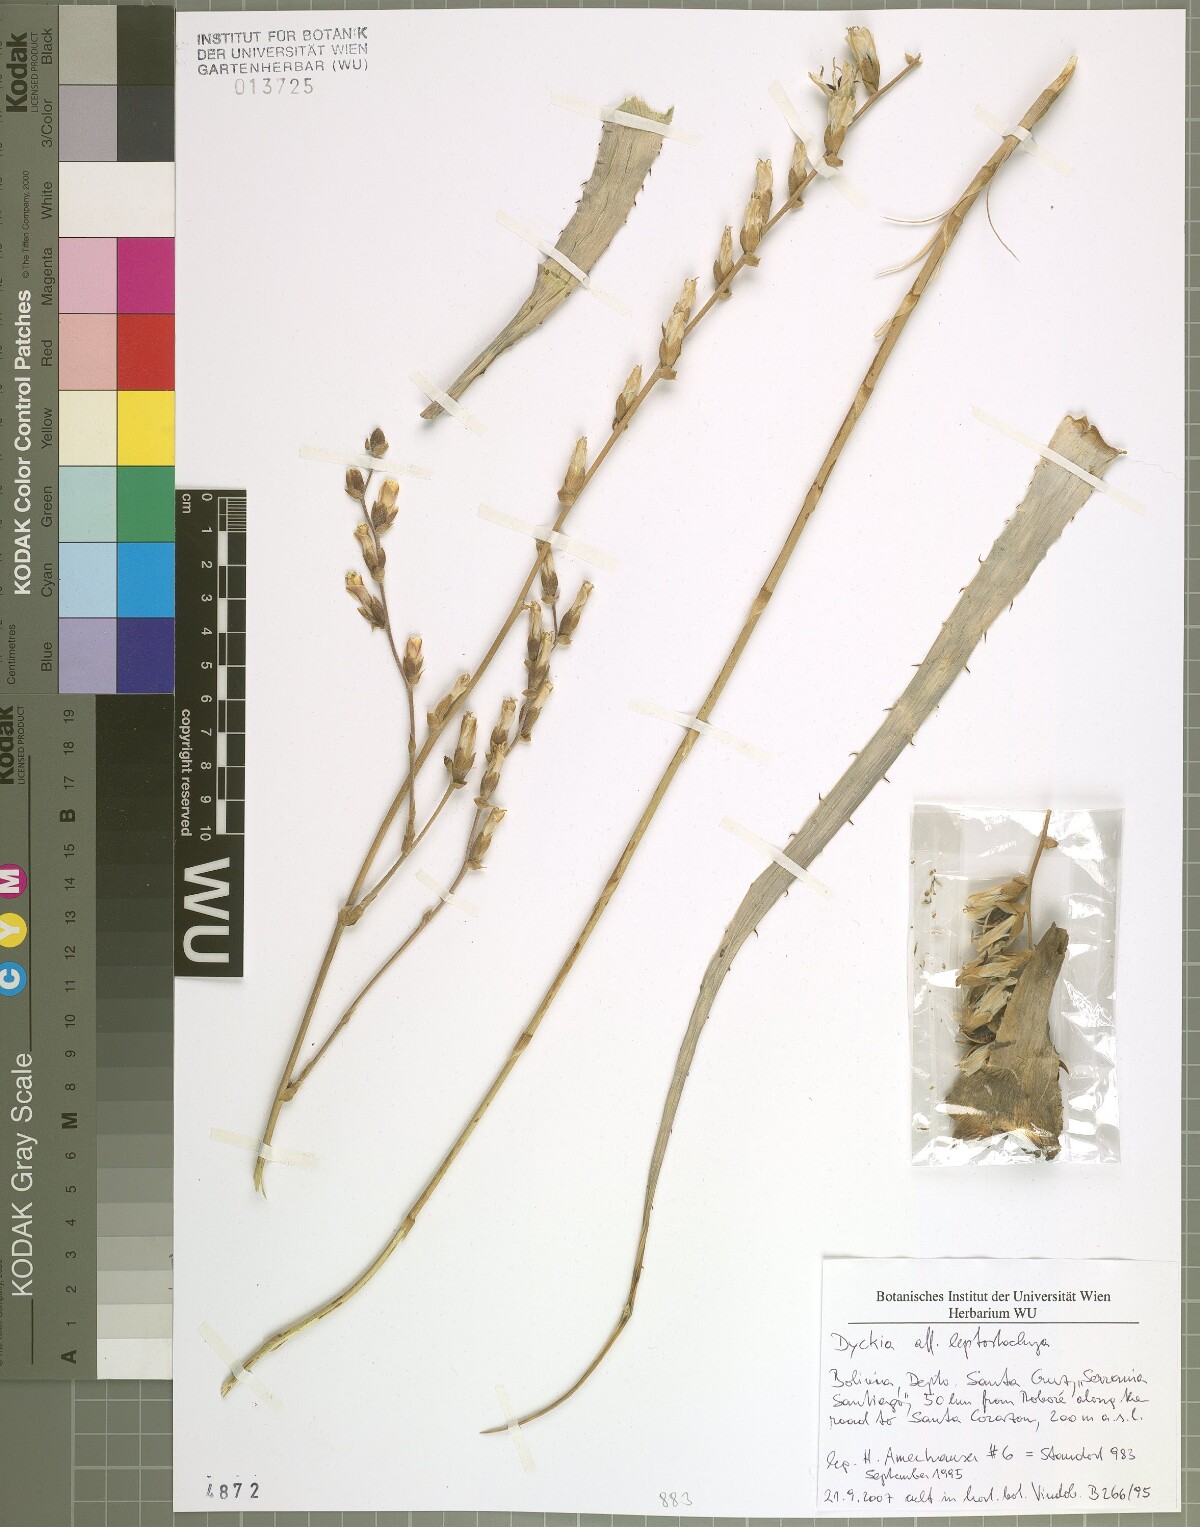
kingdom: Plantae
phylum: Tracheophyta
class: Liliopsida
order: Poales
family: Bromeliaceae
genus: Dyckia
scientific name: Dyckia leptostachya
